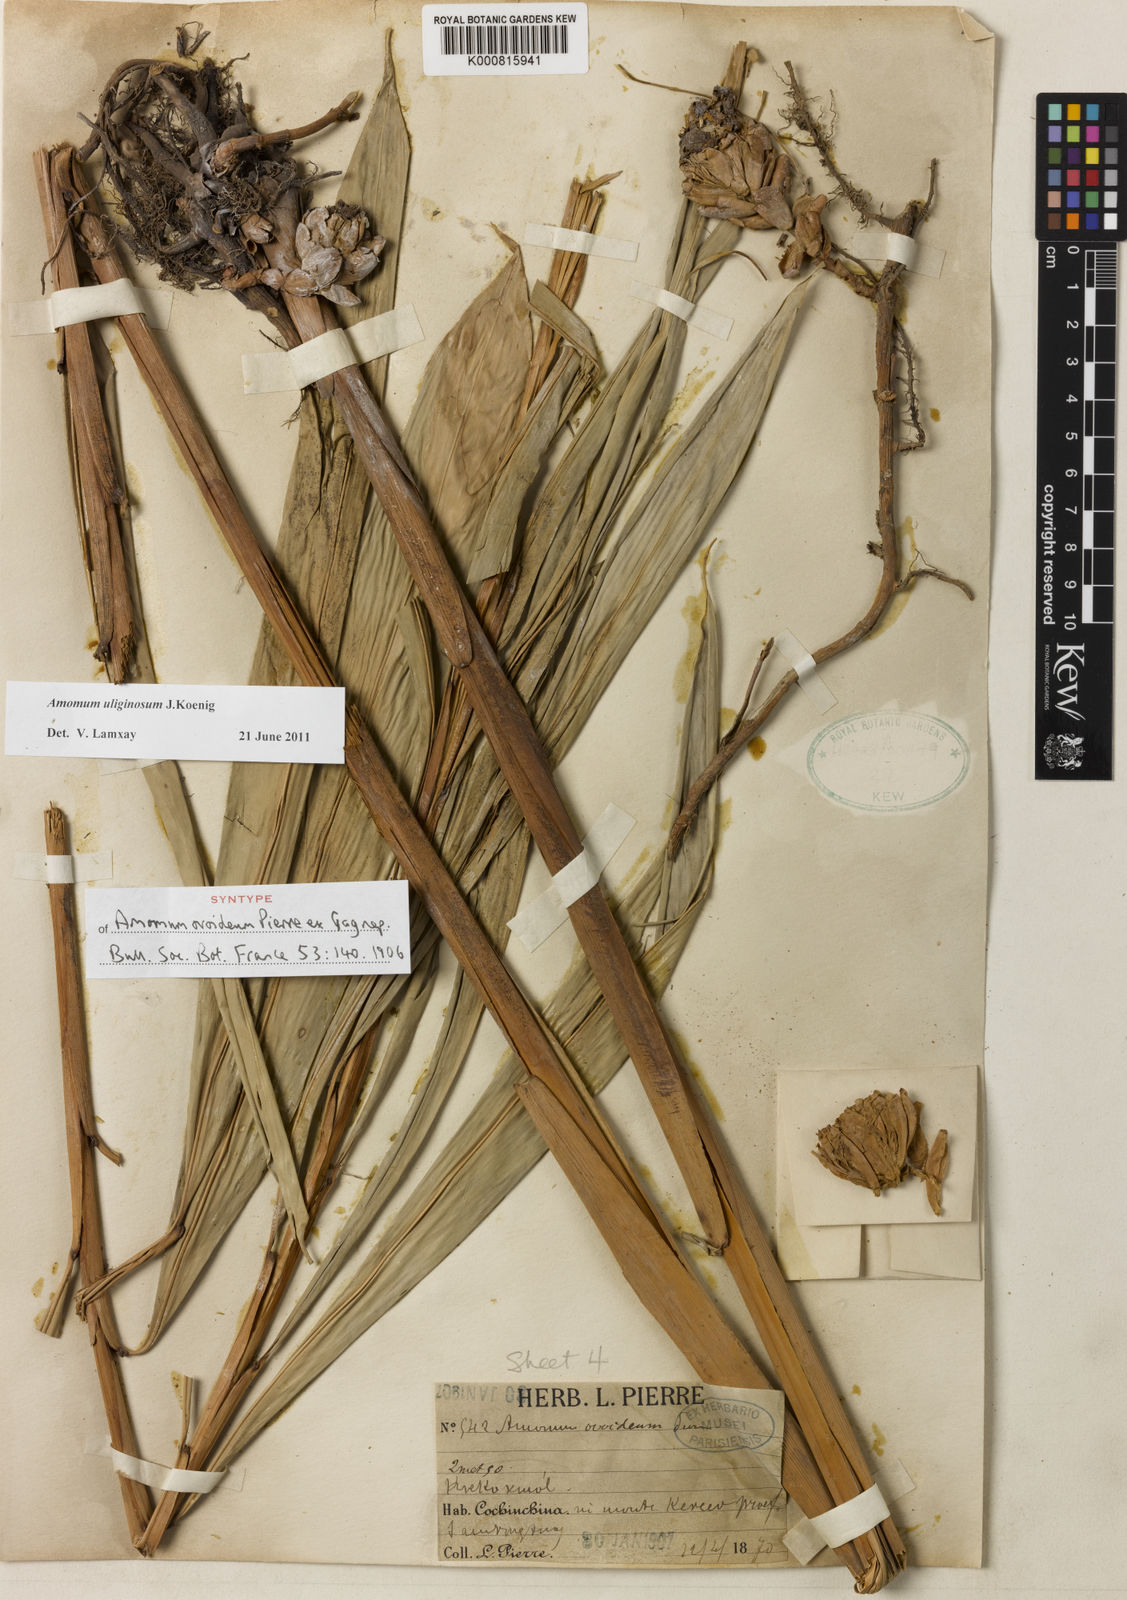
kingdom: Plantae
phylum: Tracheophyta
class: Liliopsida
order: Zingiberales
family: Zingiberaceae
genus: Wurfbainia
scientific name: Wurfbainia uliginosa
